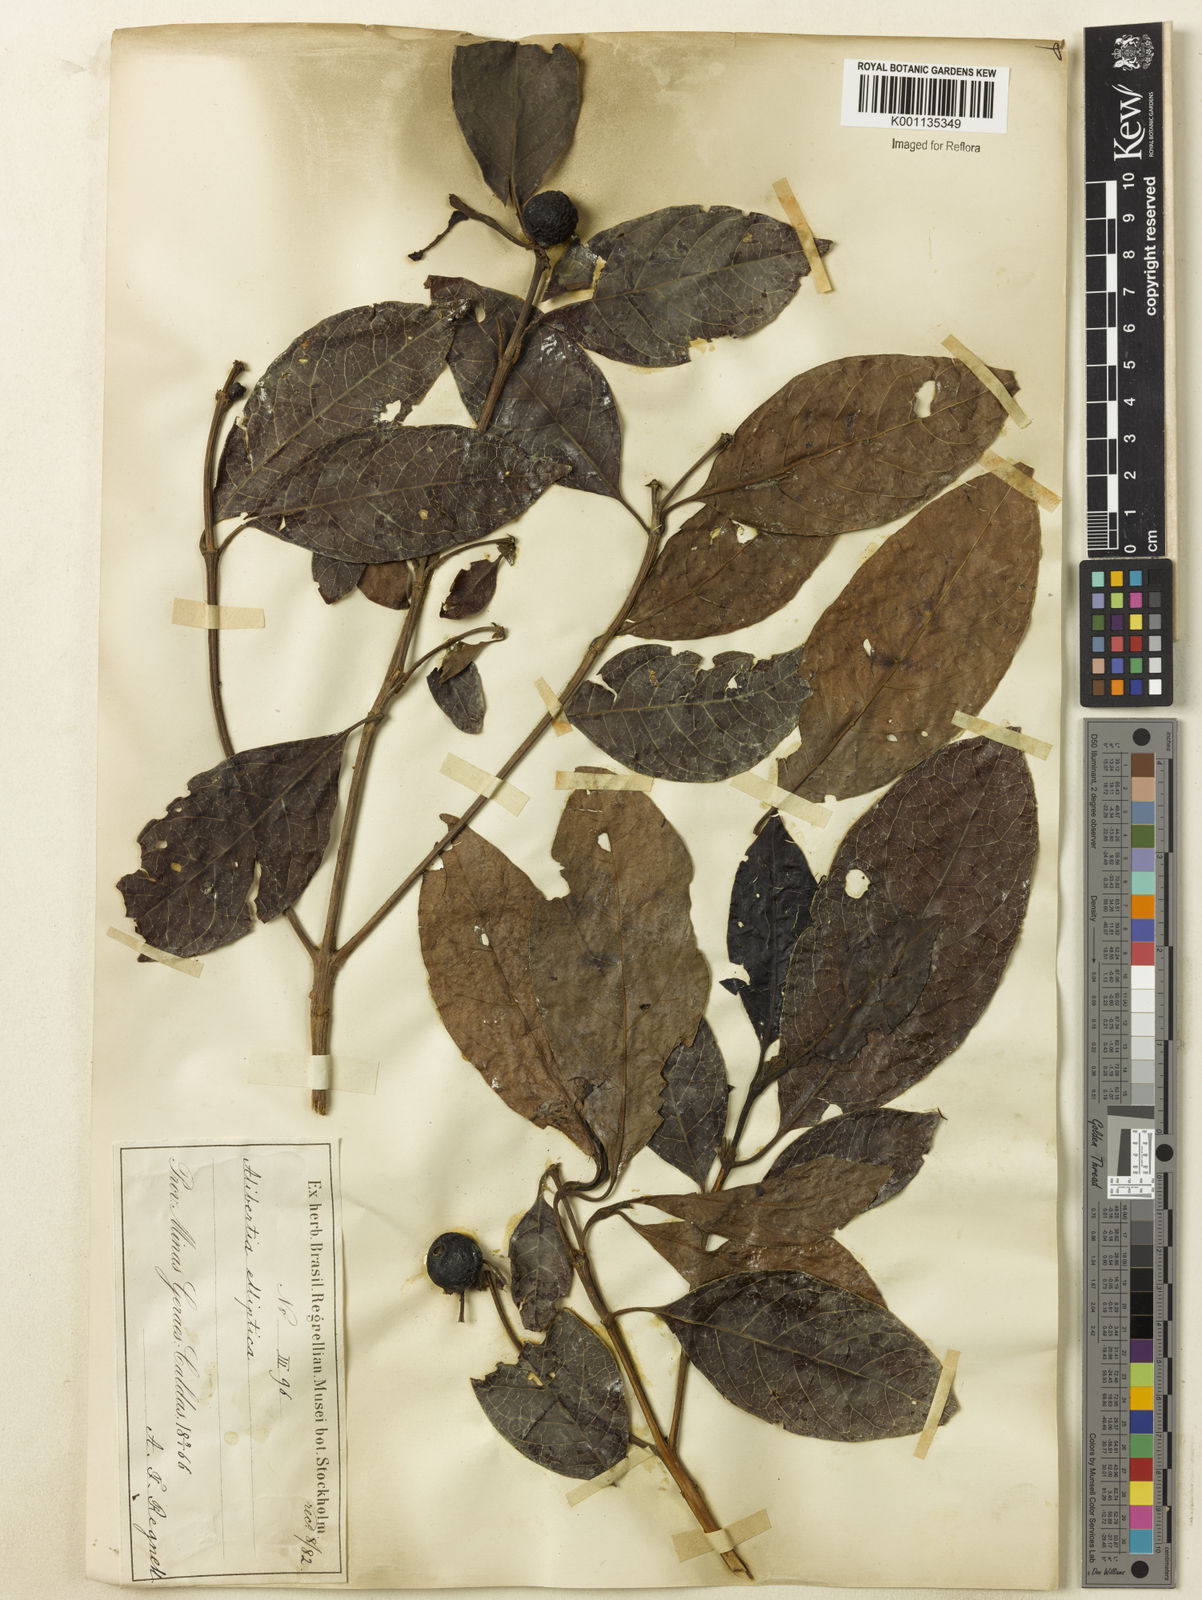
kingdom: Plantae
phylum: Tracheophyta
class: Magnoliopsida
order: Gentianales
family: Rubiaceae
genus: Cordiera
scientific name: Cordiera elliptica
